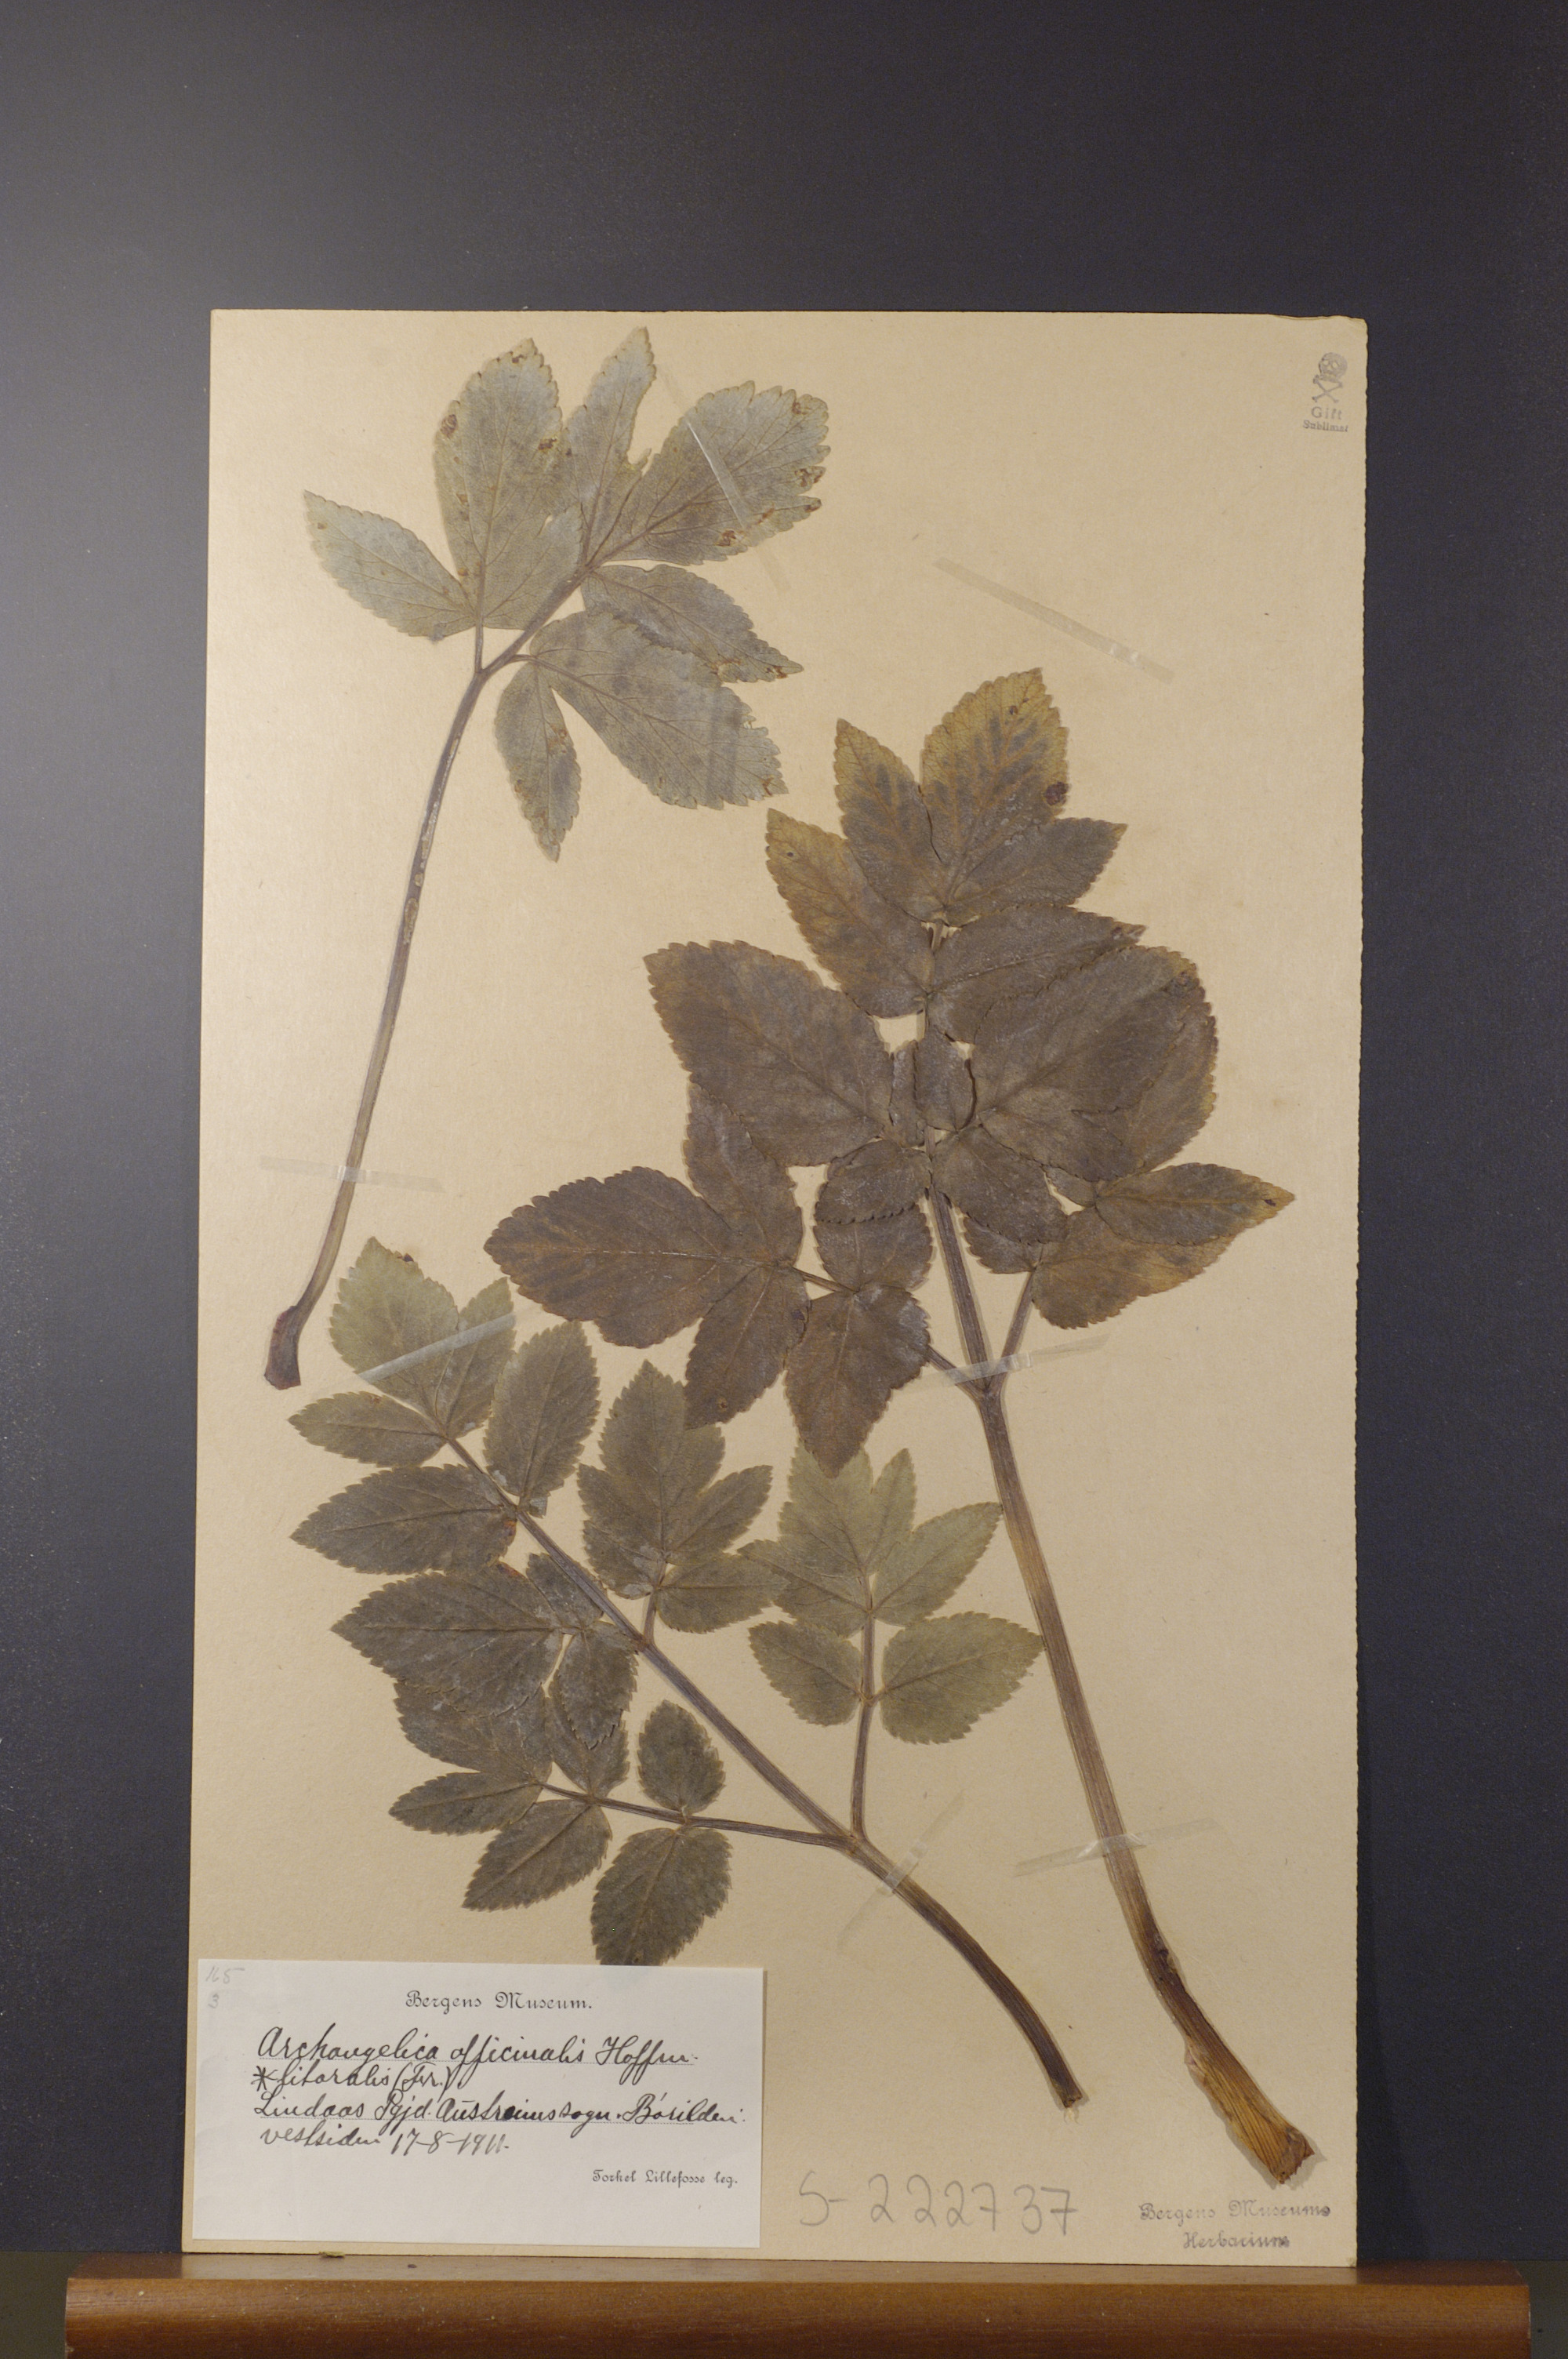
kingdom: Plantae
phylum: Tracheophyta
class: Magnoliopsida
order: Apiales
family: Apiaceae
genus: Angelica
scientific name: Angelica archangelica
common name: Garden angelica
